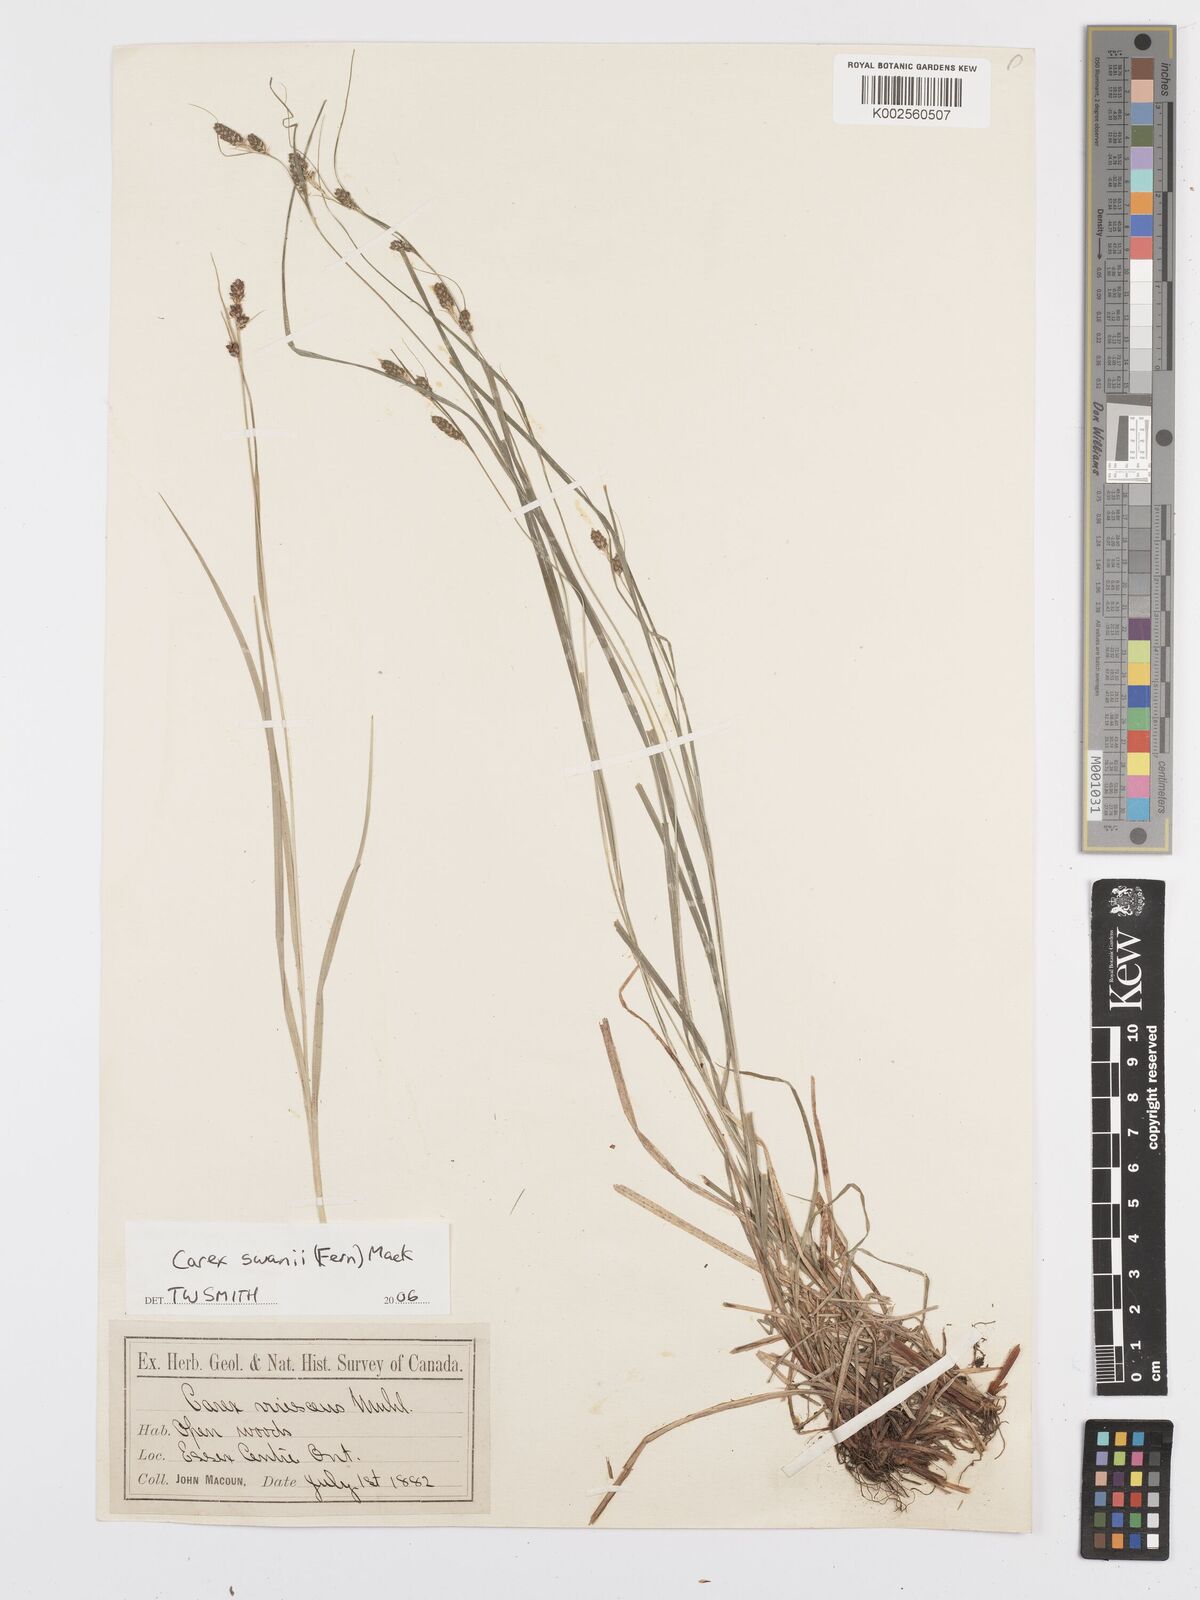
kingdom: Plantae
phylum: Tracheophyta
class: Liliopsida
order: Poales
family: Cyperaceae
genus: Carex
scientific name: Carex swanii
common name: Downy green sedge
